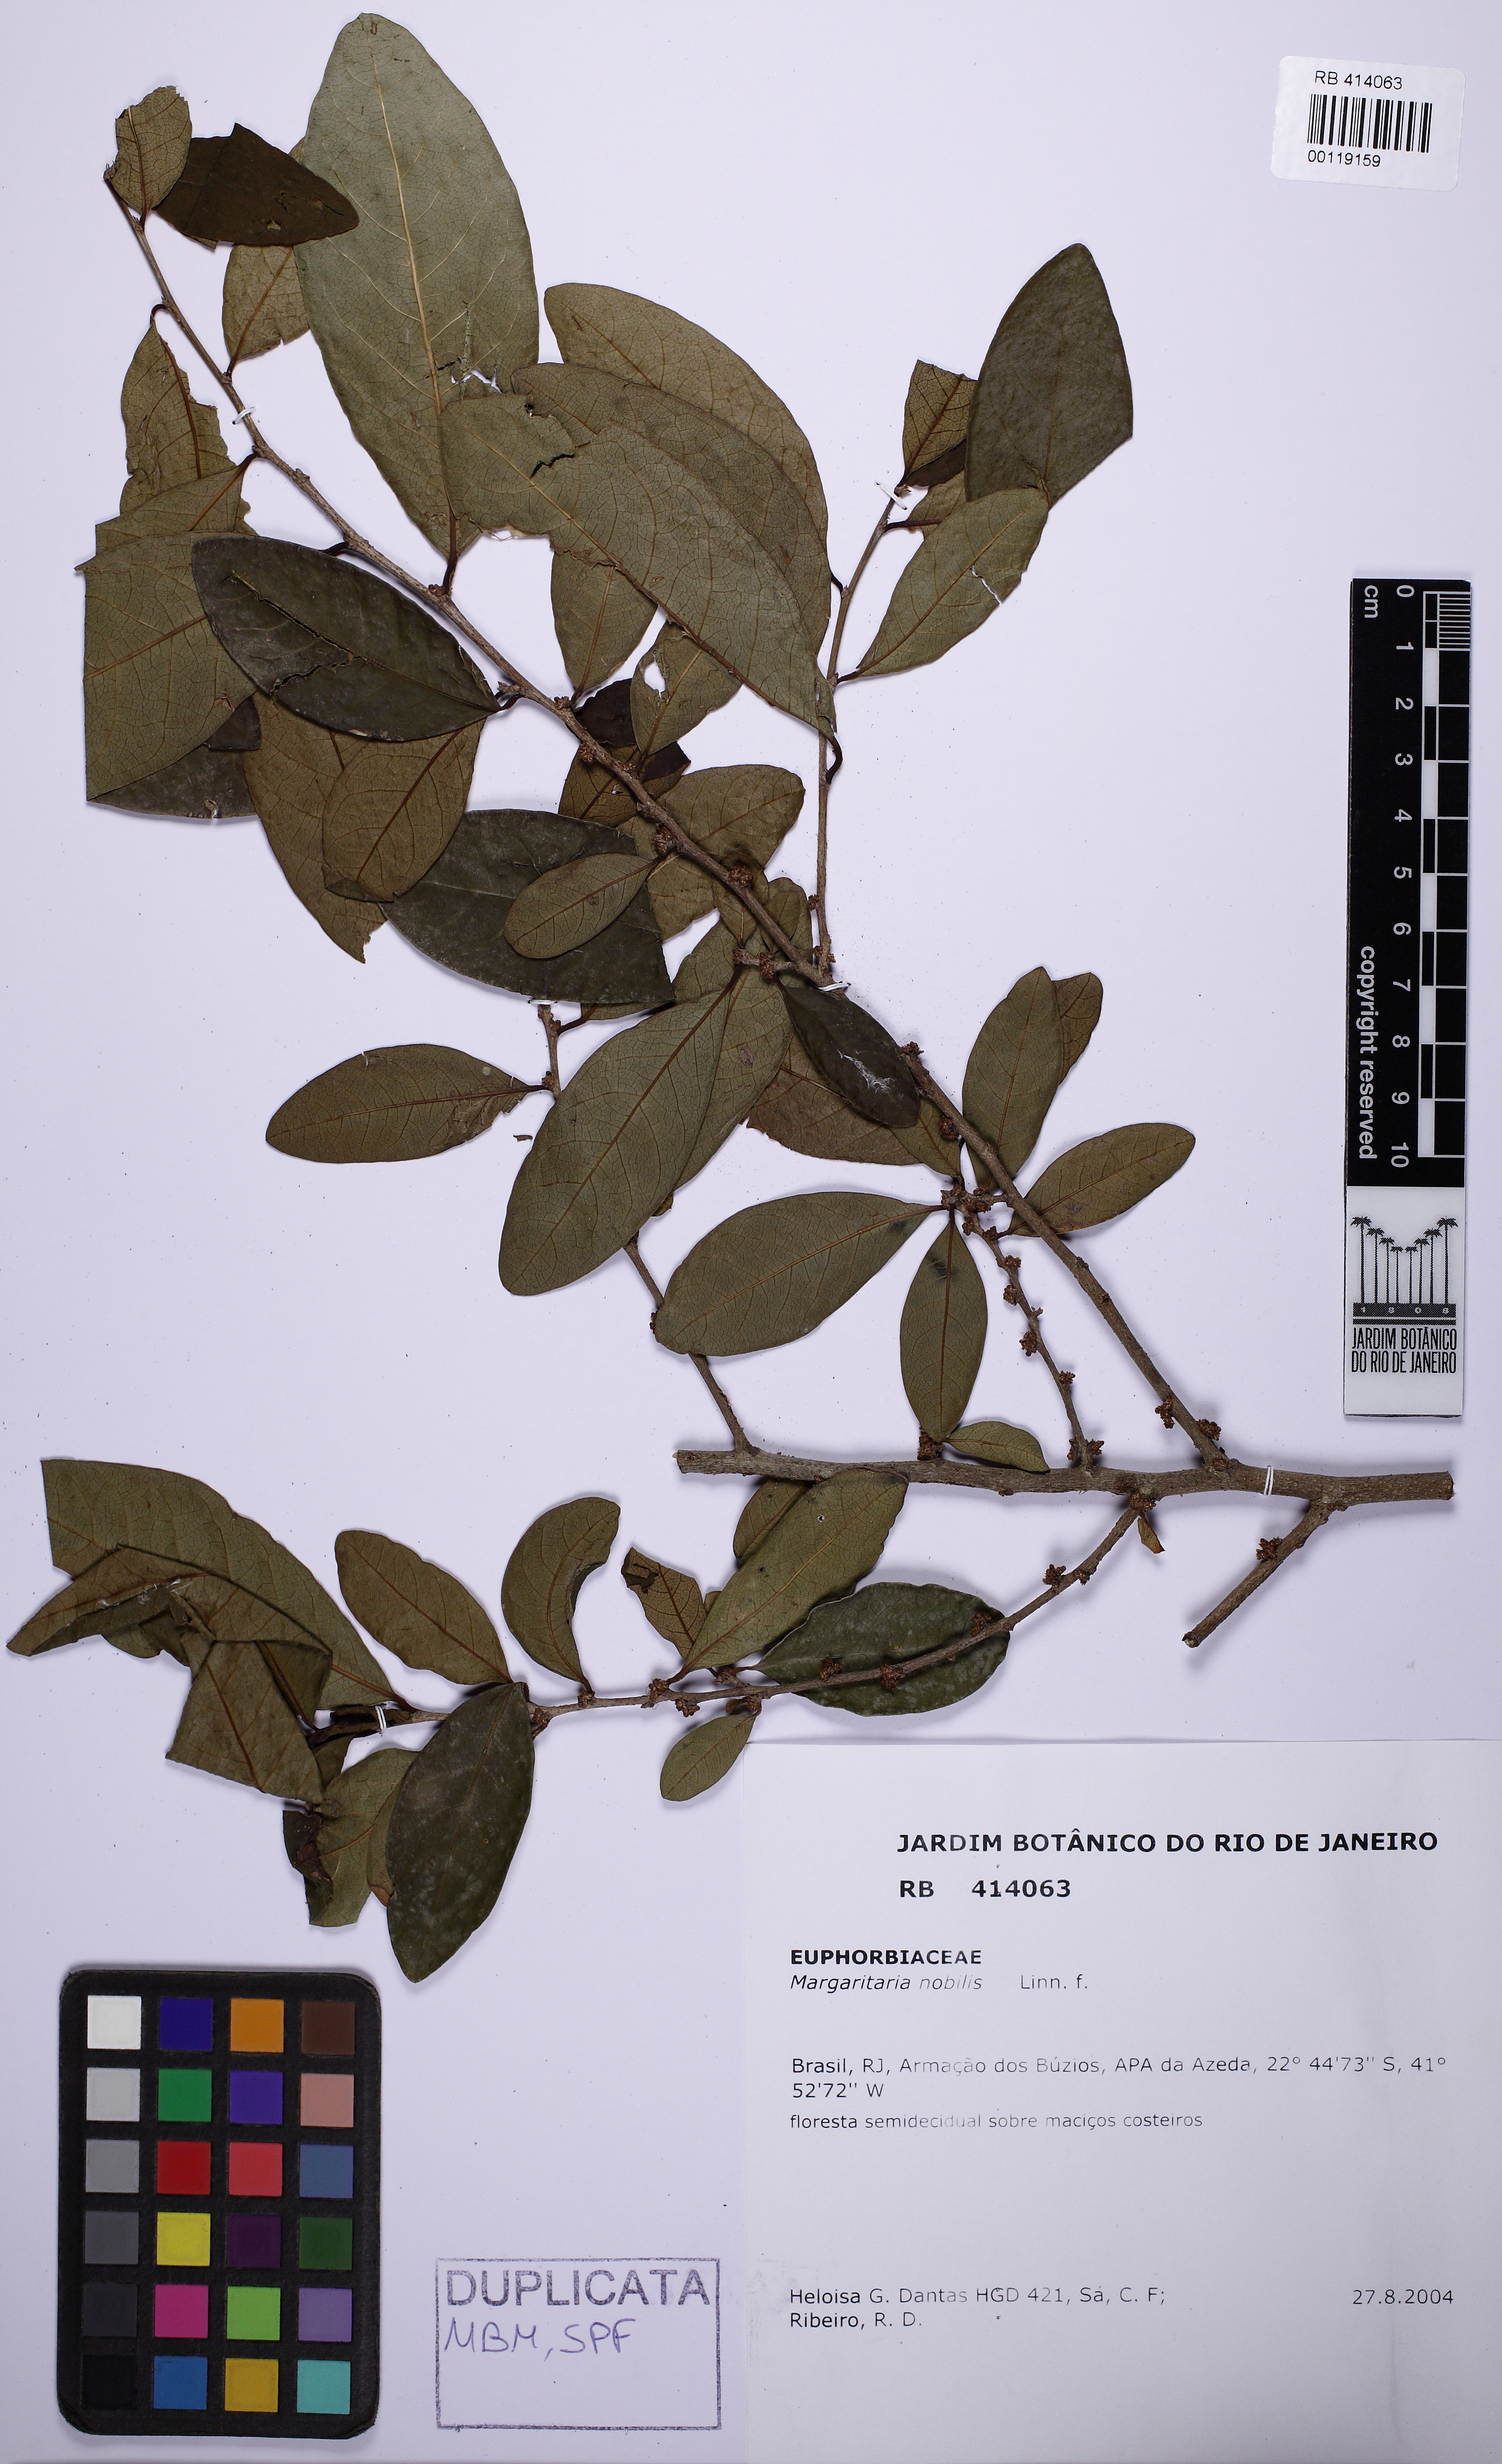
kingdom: Plantae
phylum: Tracheophyta
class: Magnoliopsida
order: Malpighiales
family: Phyllanthaceae
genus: Margaritaria
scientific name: Margaritaria nobilis
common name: Goose berry
